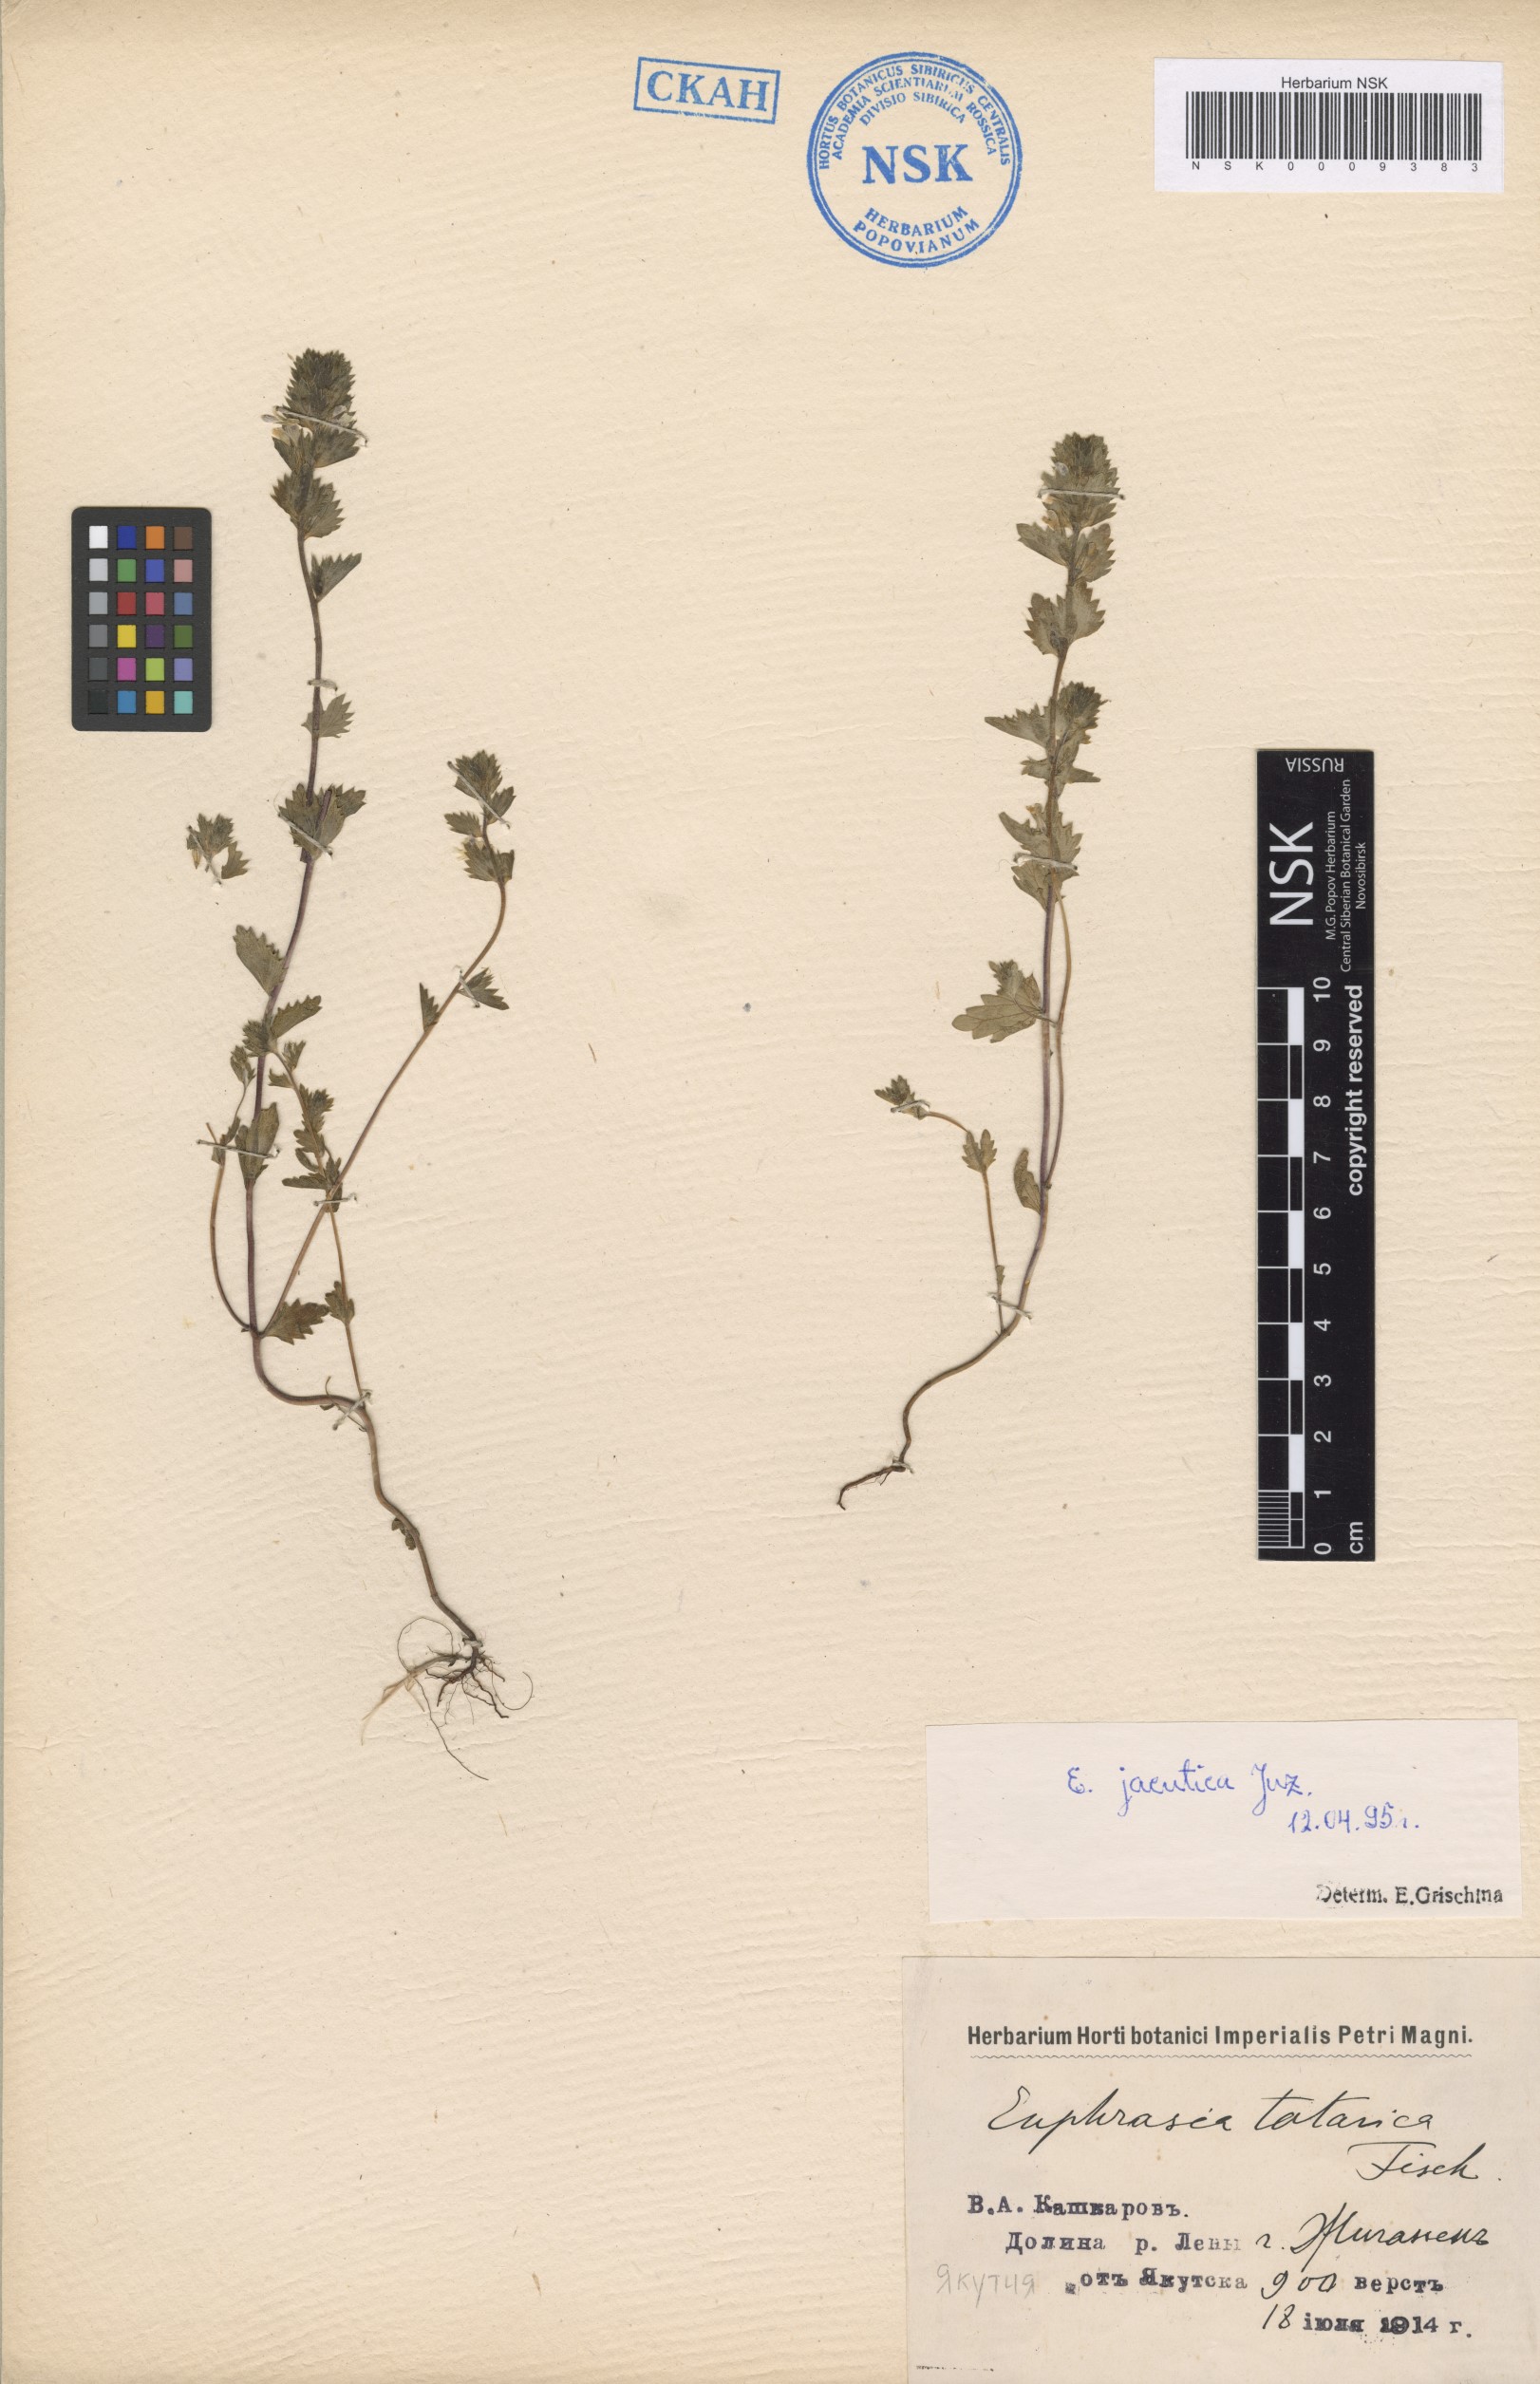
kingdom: Plantae
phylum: Tracheophyta
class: Magnoliopsida
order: Lamiales
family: Orobanchaceae
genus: Euphrasia
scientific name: Euphrasia jacutica
